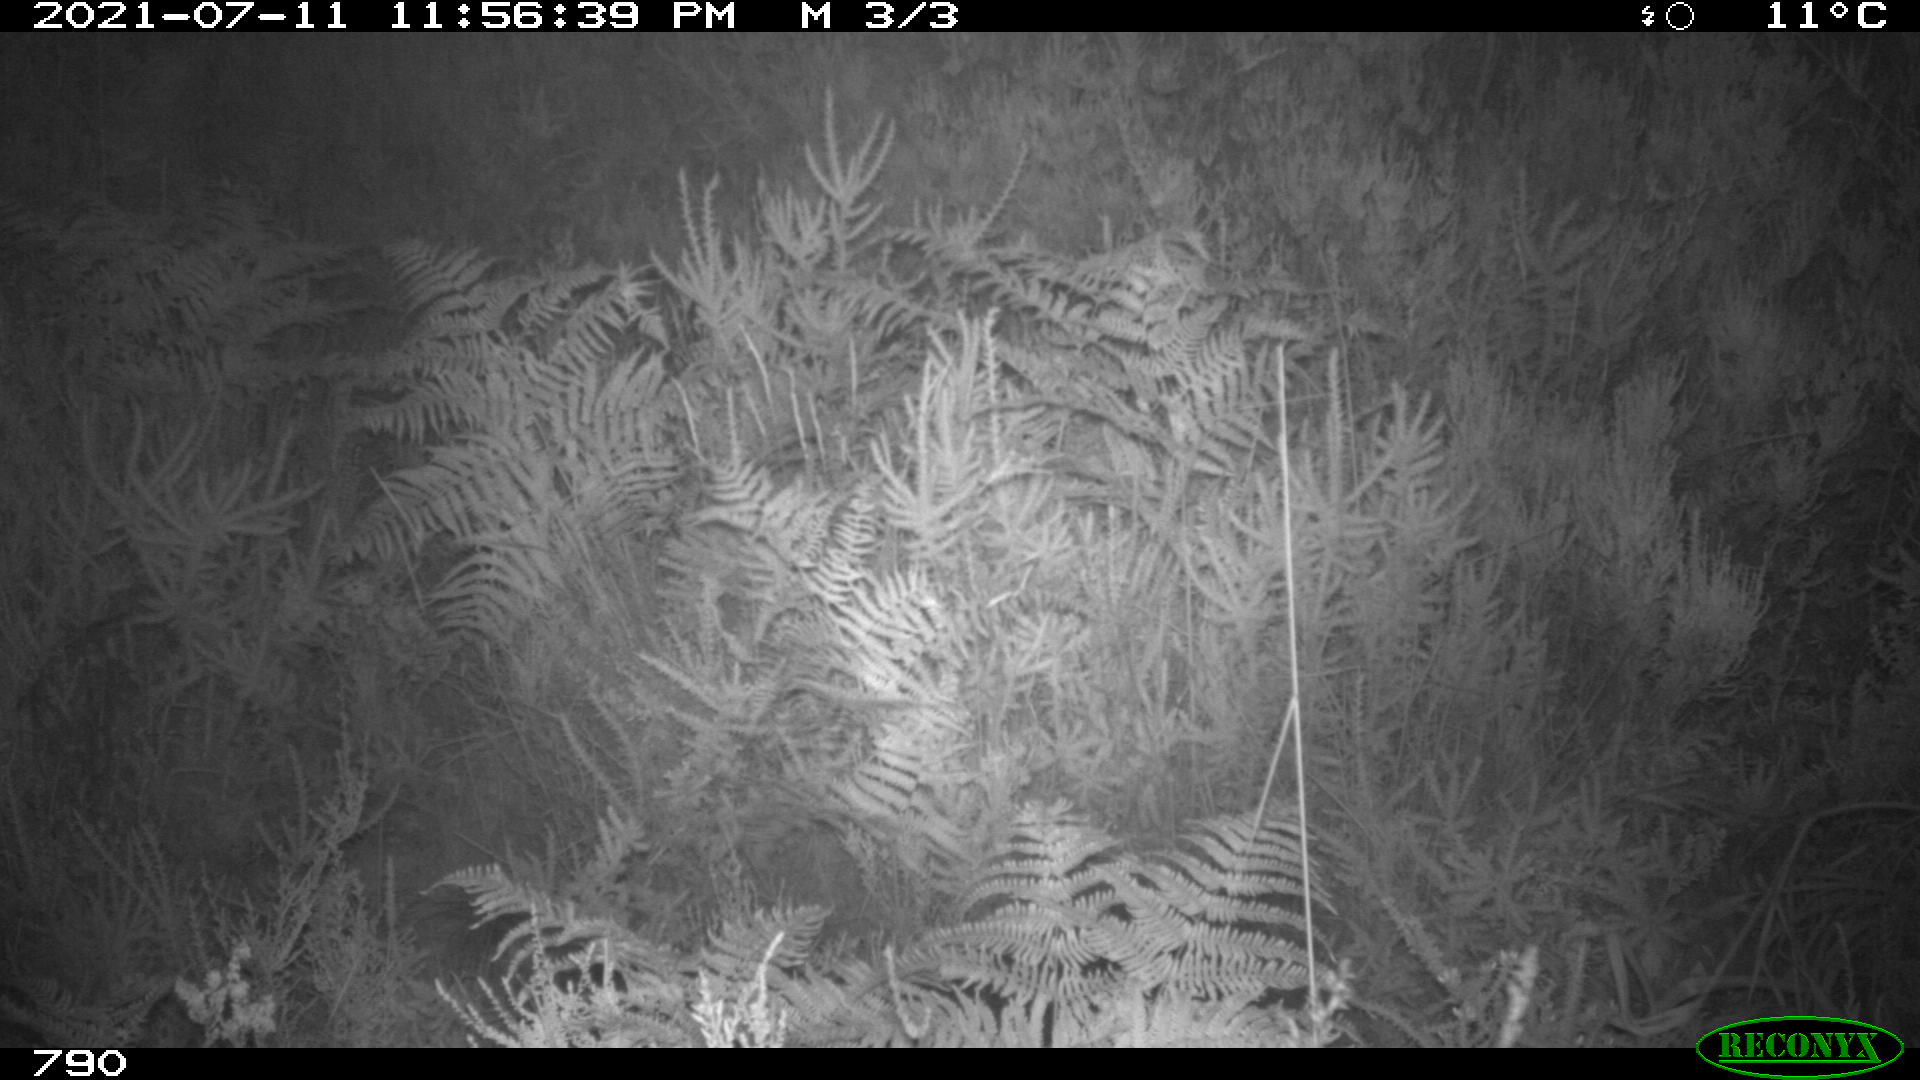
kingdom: Animalia
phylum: Chordata
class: Mammalia
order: Artiodactyla
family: Cervidae
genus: Capreolus
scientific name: Capreolus capreolus
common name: Western roe deer
